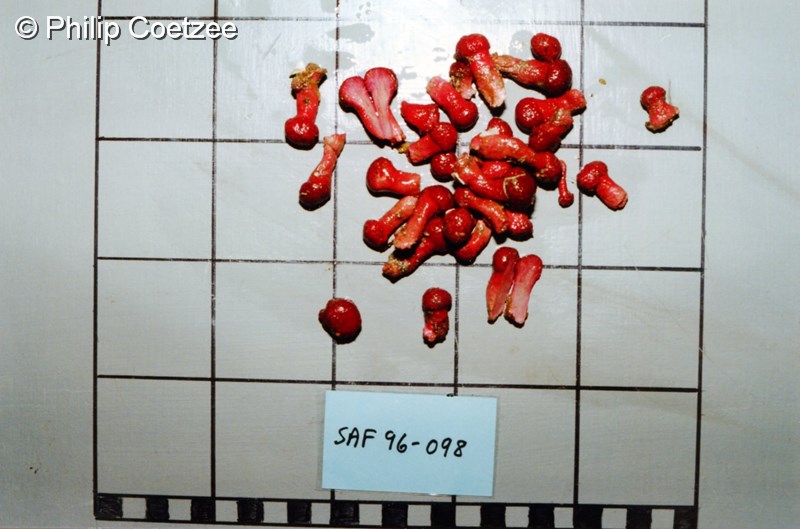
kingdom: Animalia
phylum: Cnidaria
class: Anthozoa
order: Malacalcyonacea
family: Alcyoniidae
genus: Alcyonium
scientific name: Alcyonium variabile
